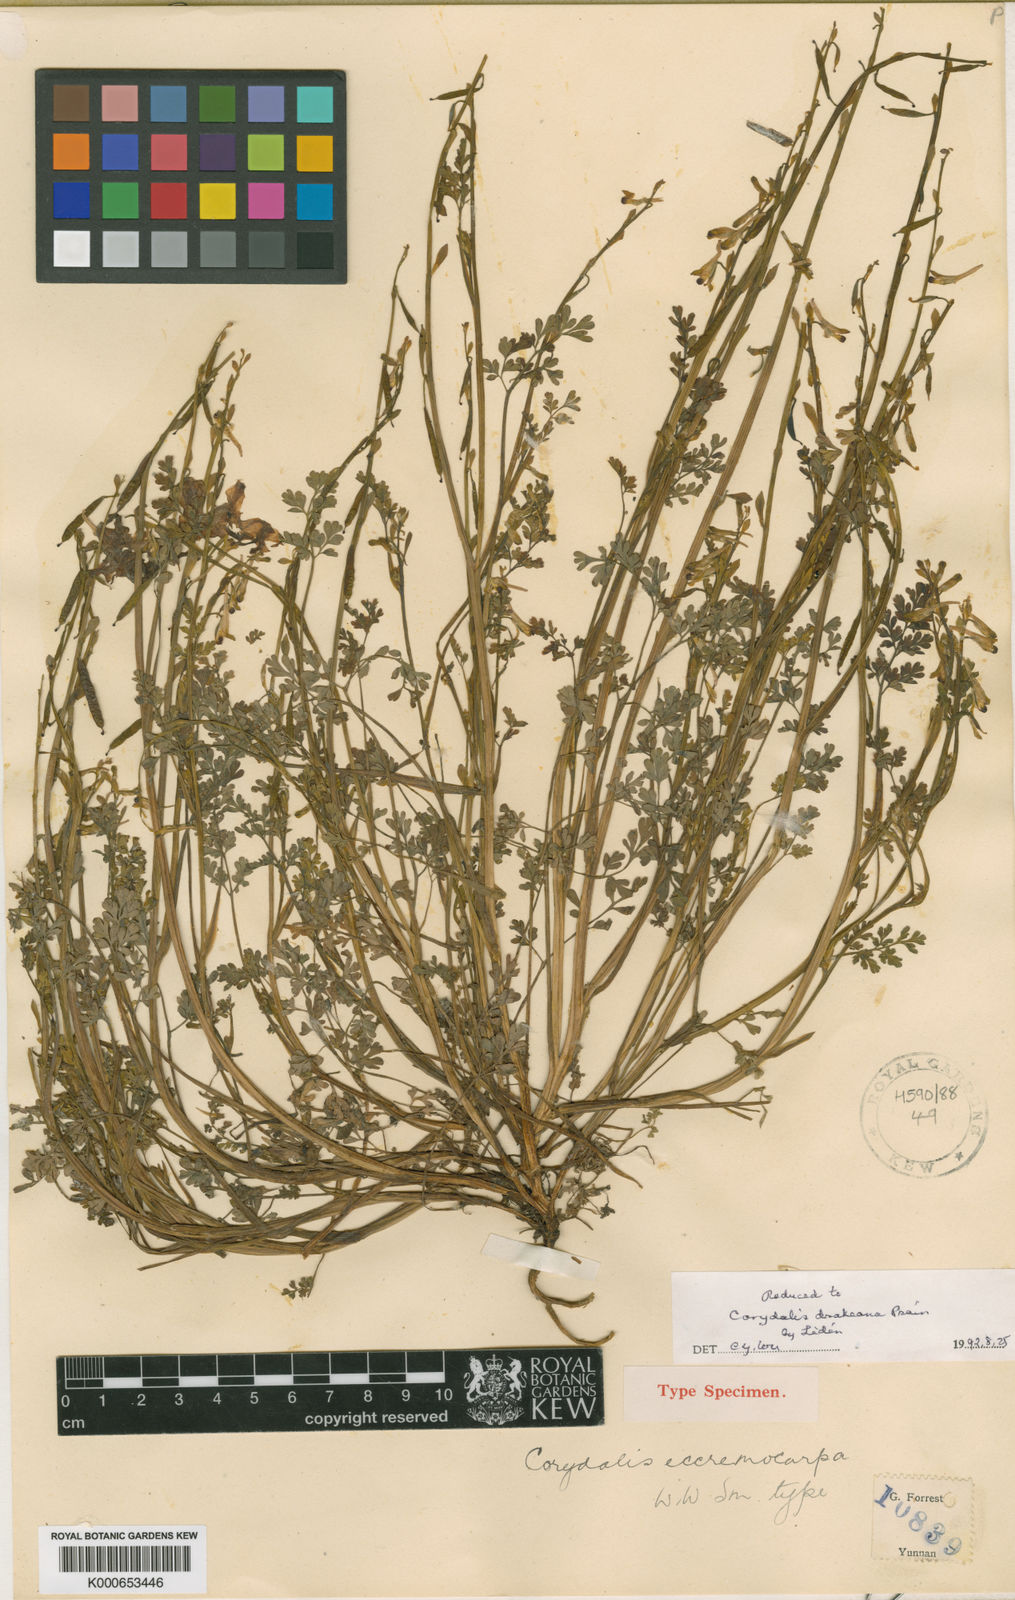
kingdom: Plantae
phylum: Tracheophyta
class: Magnoliopsida
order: Ranunculales
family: Papaveraceae
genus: Corydalis
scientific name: Corydalis drakeana
